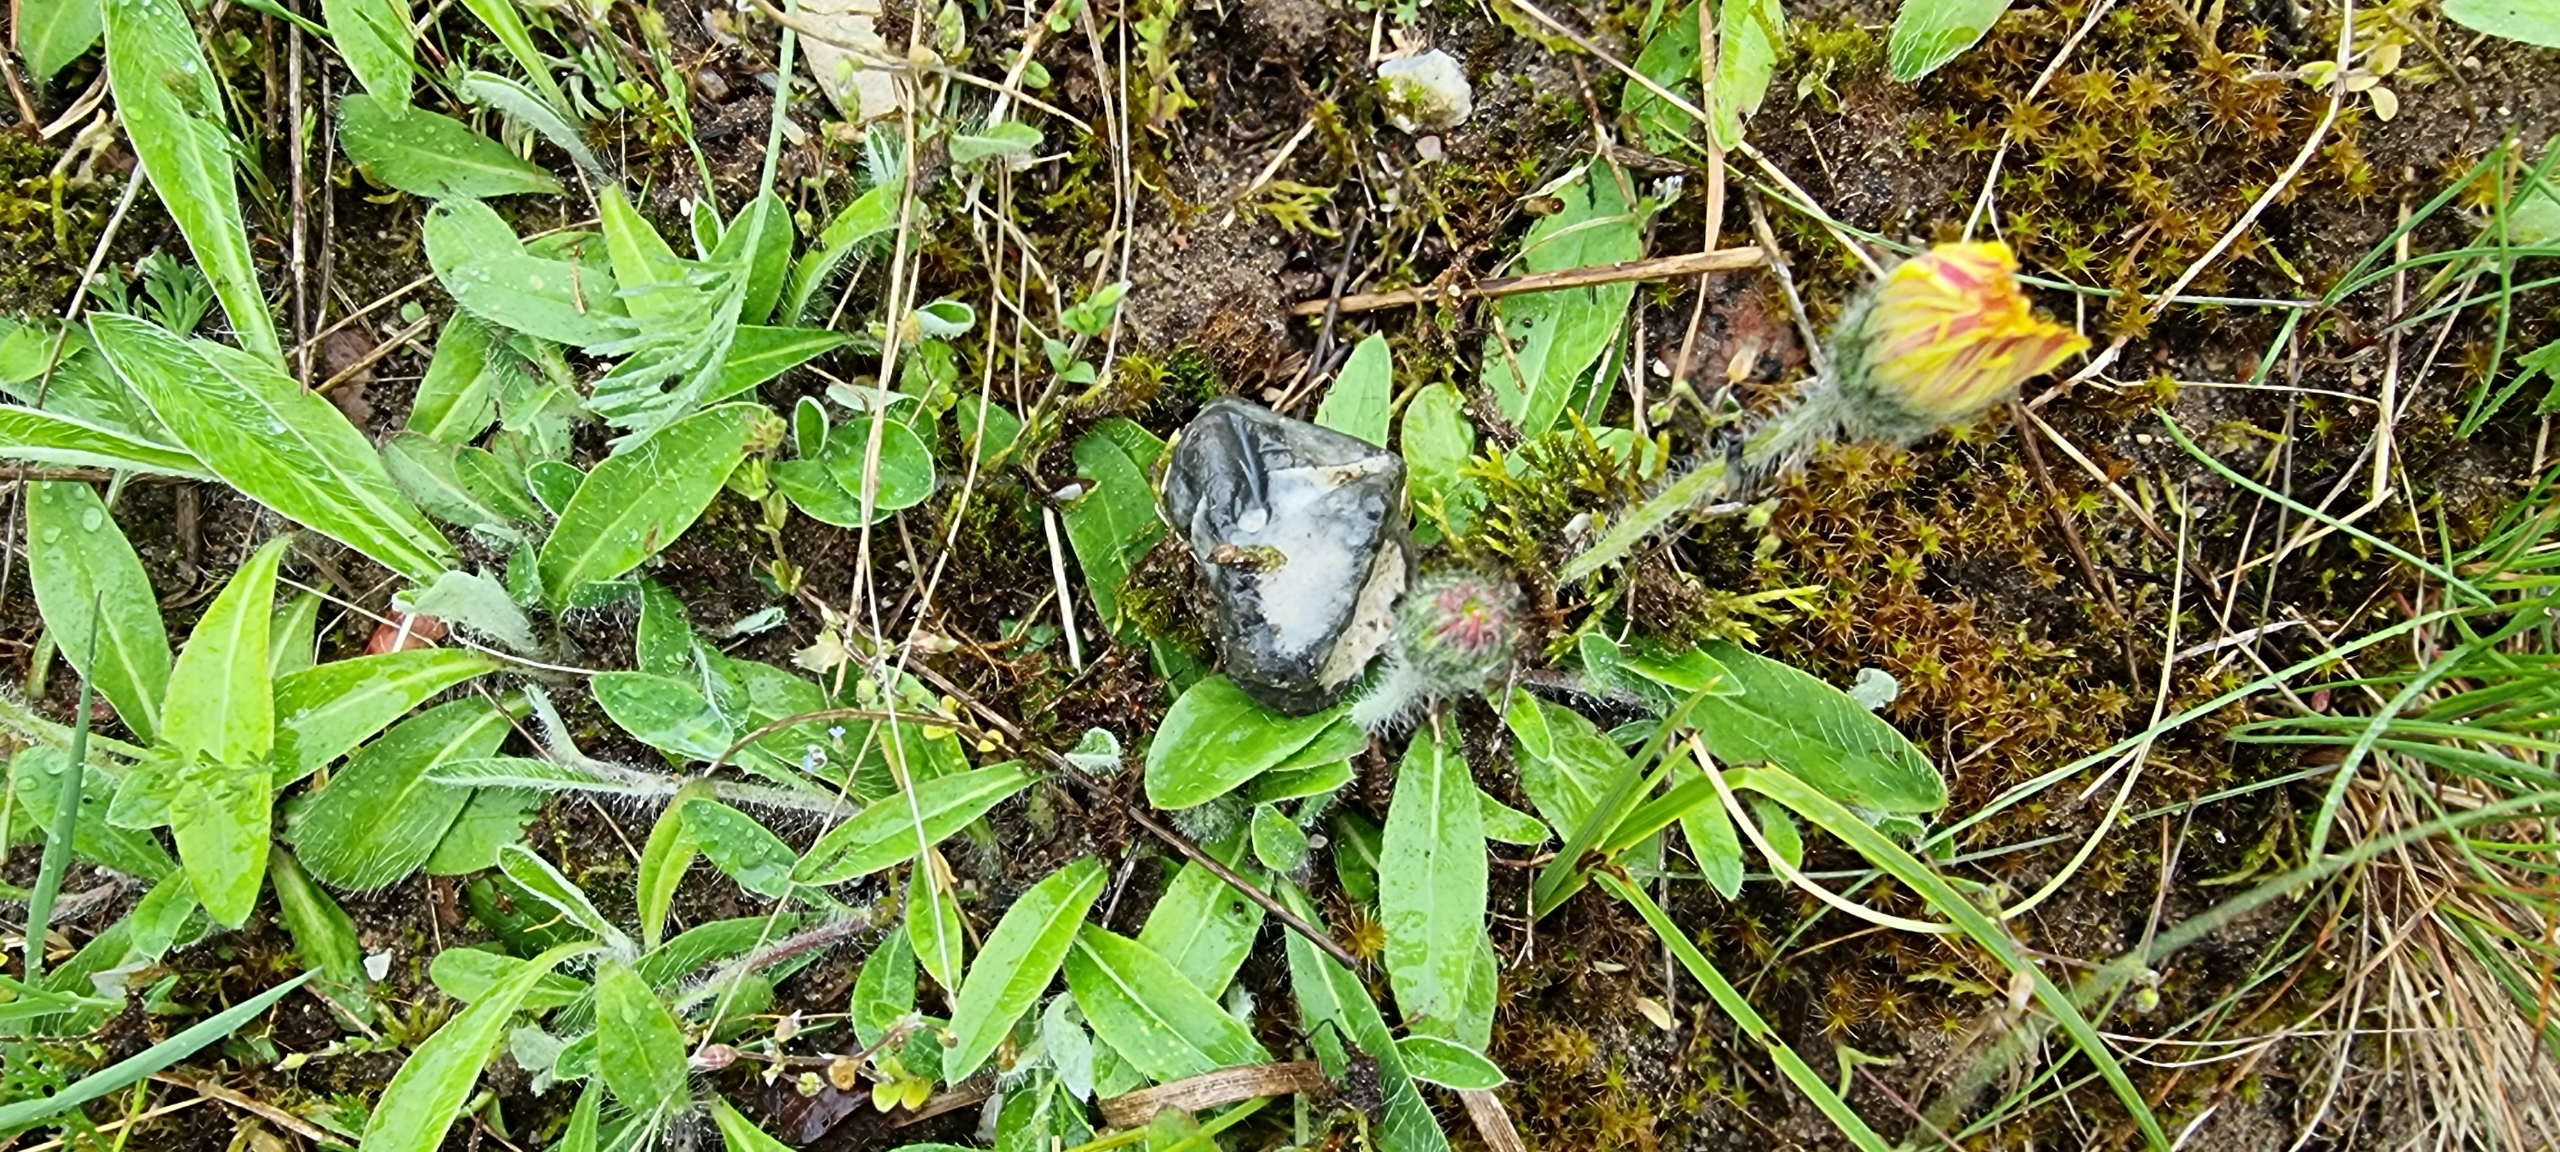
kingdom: Plantae
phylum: Tracheophyta
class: Magnoliopsida
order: Asterales
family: Asteraceae
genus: Pilosella
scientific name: Pilosella officinarum
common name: Håret høgeurt
